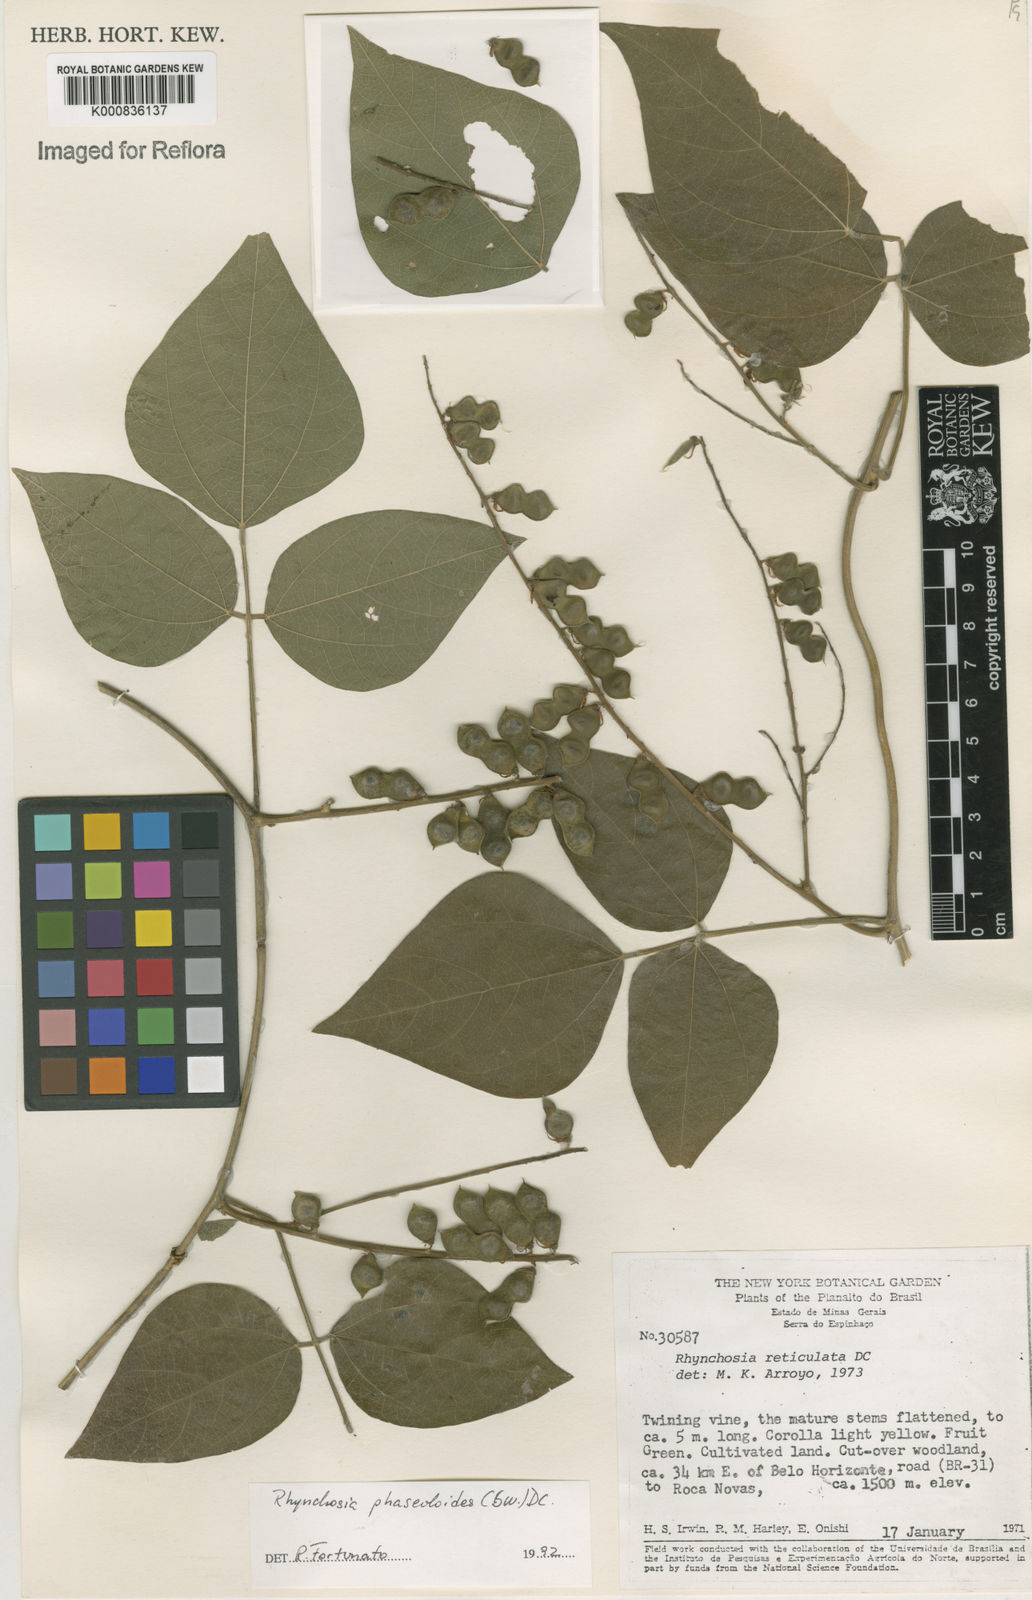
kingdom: Plantae
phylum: Tracheophyta
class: Magnoliopsida
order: Fabales
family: Fabaceae
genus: Rhynchosia
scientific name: Rhynchosia phaseoloides
